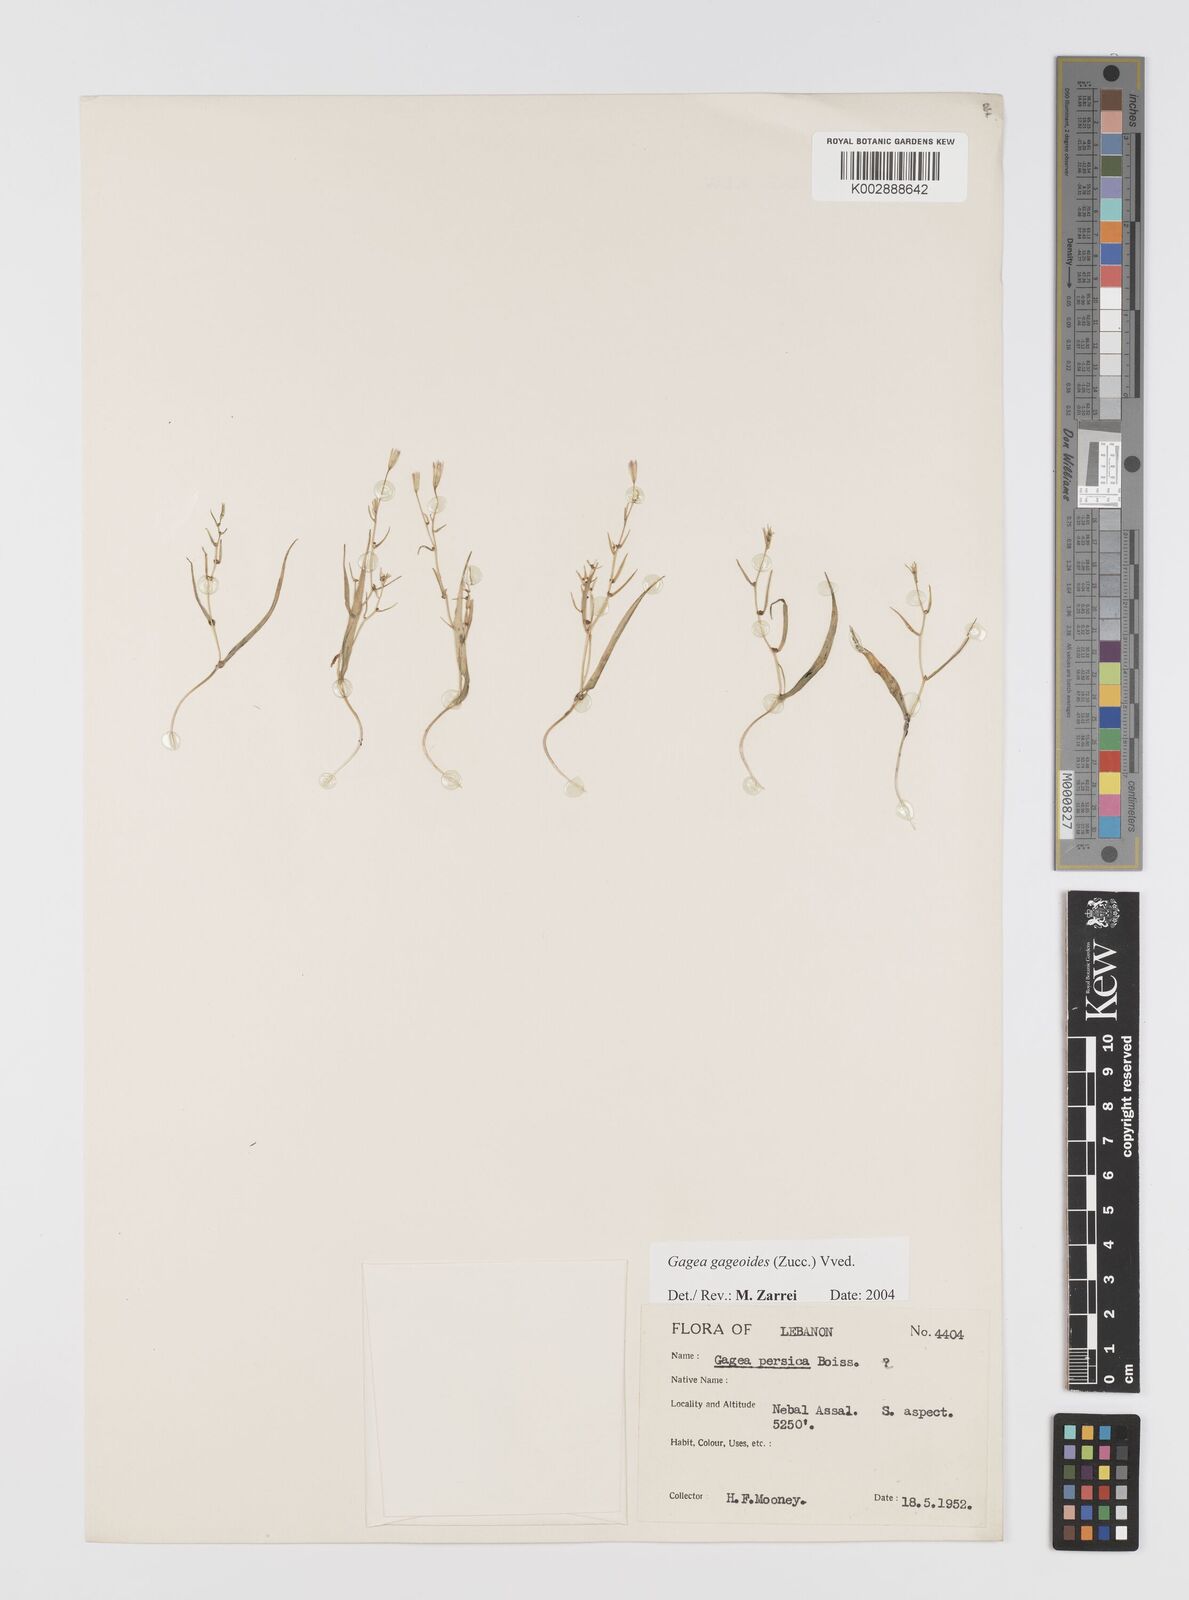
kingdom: Plantae
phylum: Tracheophyta
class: Liliopsida
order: Liliales
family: Liliaceae
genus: Gagea
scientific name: Gagea gageoides
